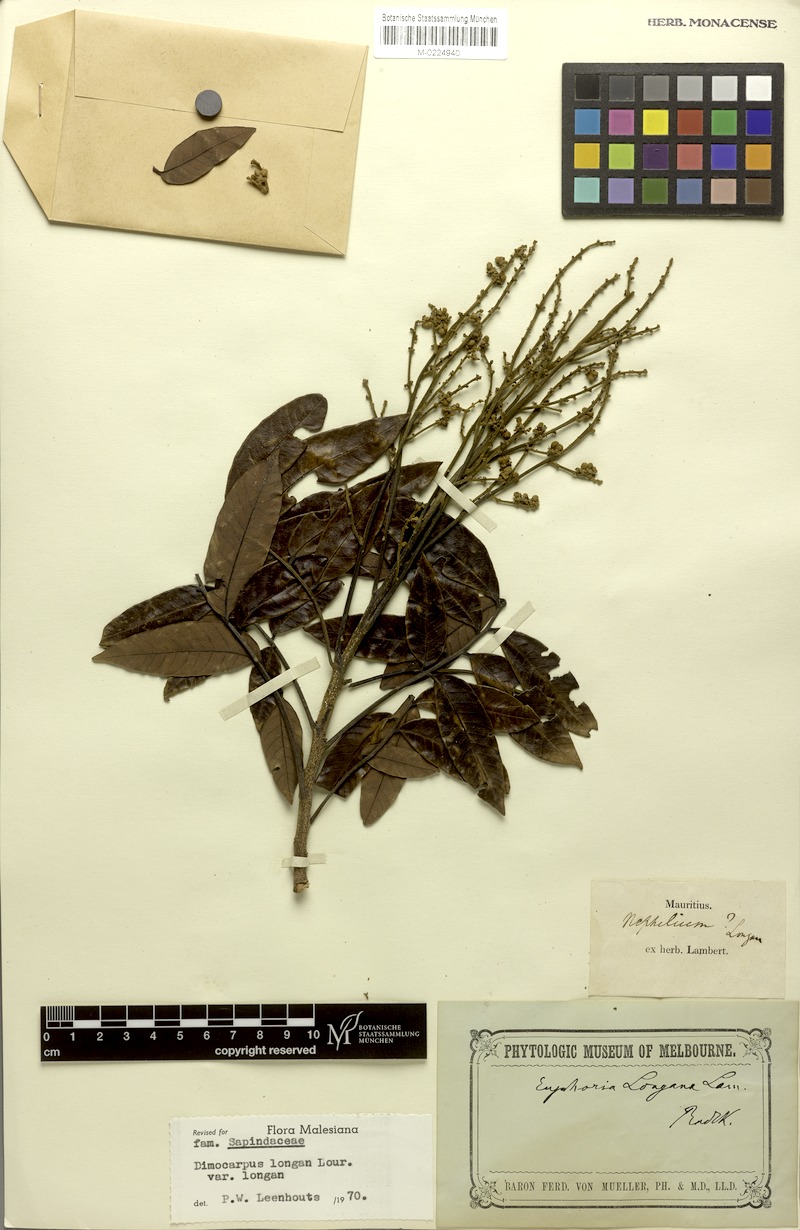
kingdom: Plantae
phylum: Tracheophyta
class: Magnoliopsida
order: Sapindales
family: Sapindaceae
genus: Dimocarpus
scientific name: Dimocarpus longan
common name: Longan
